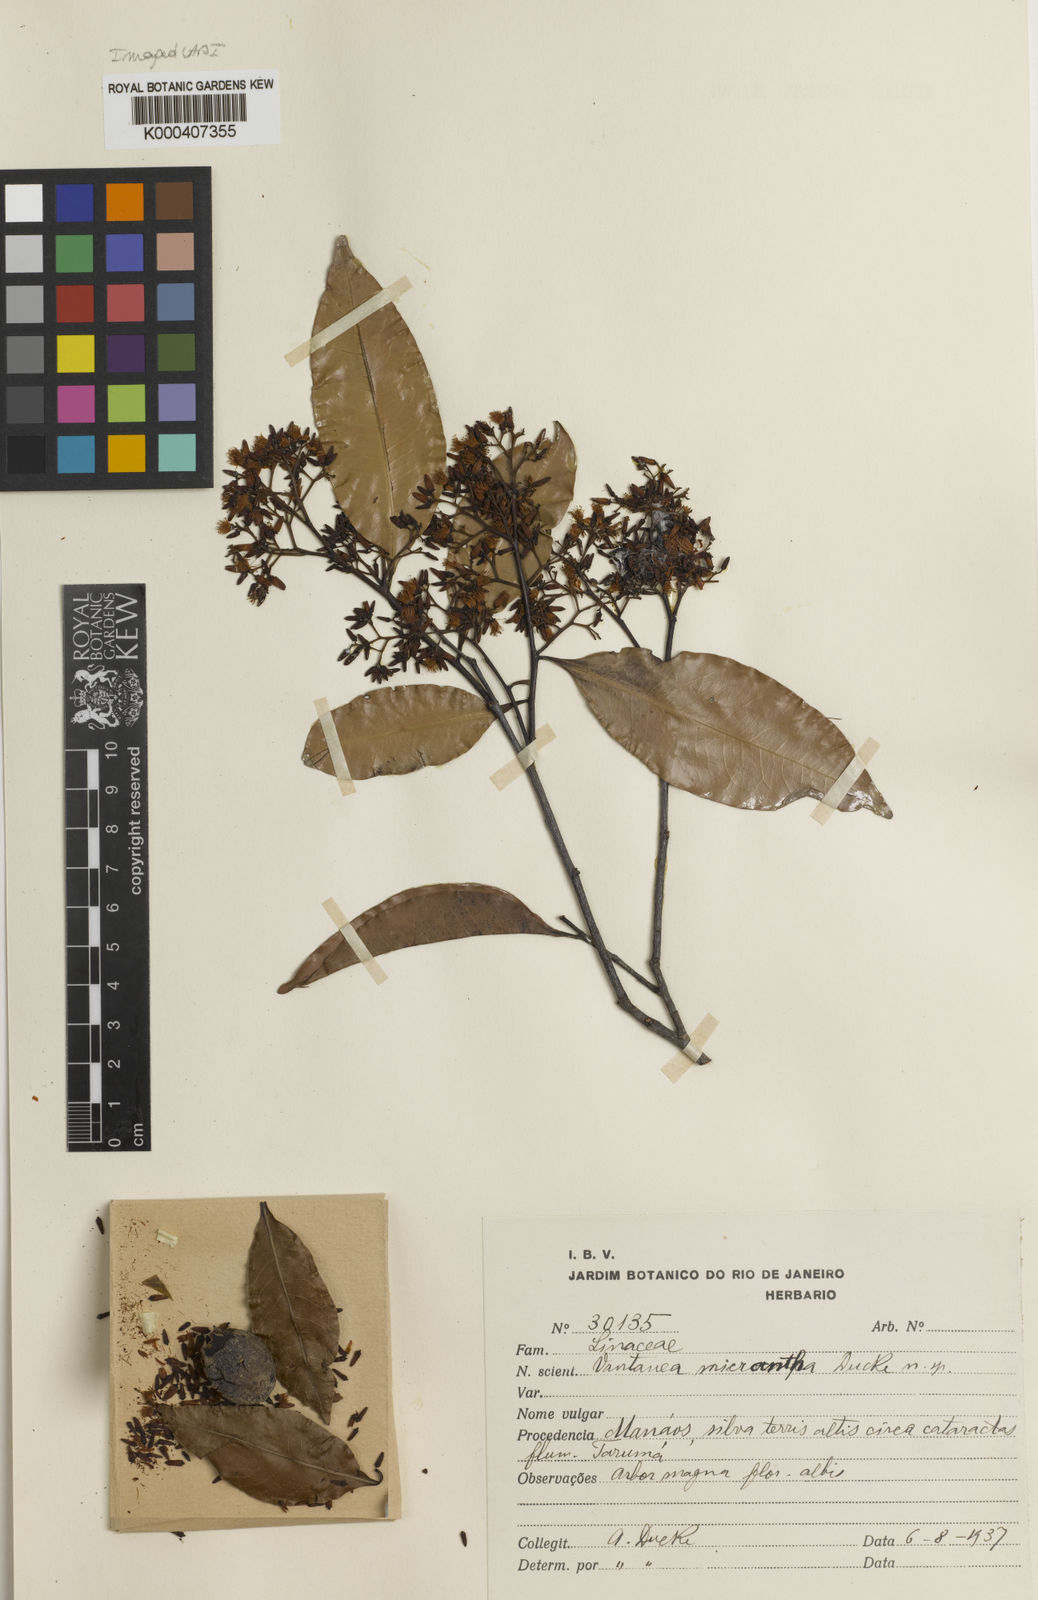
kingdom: Plantae
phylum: Tracheophyta
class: Magnoliopsida
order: Malpighiales
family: Humiriaceae
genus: Vantanea
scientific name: Vantanea micrantha
